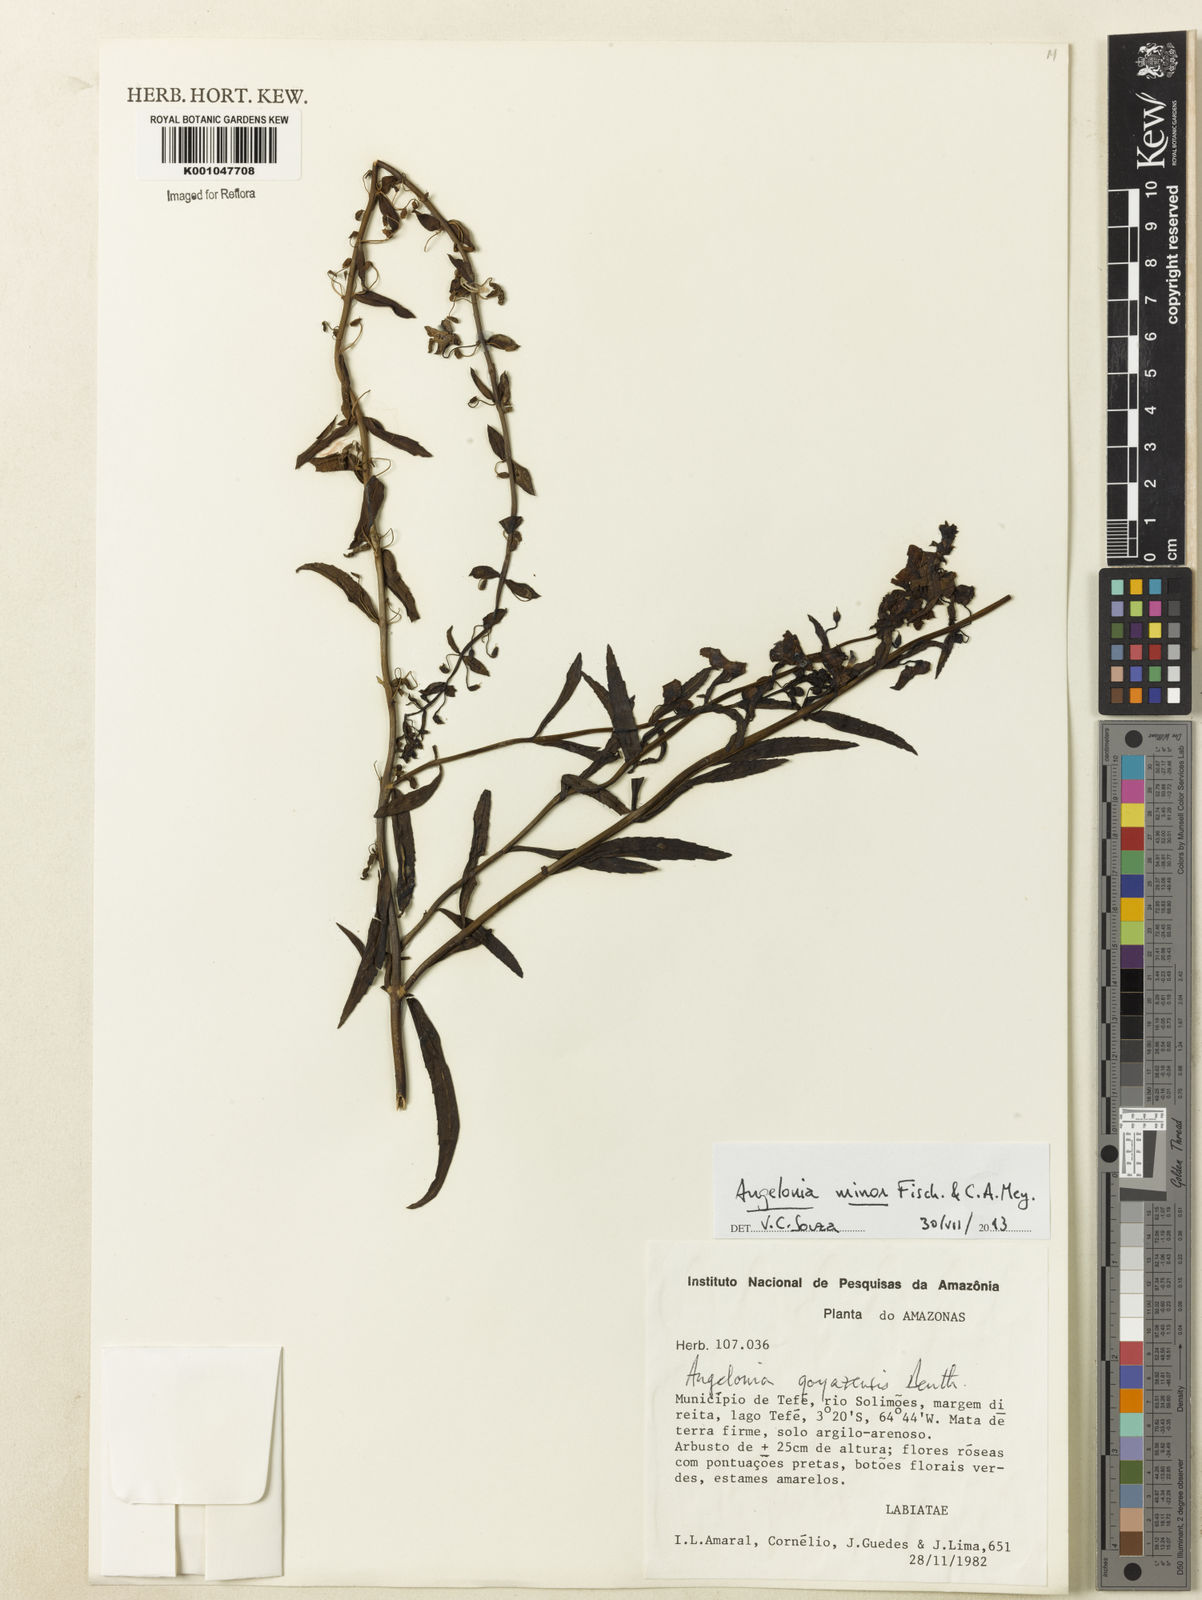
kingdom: Plantae
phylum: Tracheophyta
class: Magnoliopsida
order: Lamiales
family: Plantaginaceae
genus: Angelonia
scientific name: Angelonia minor
